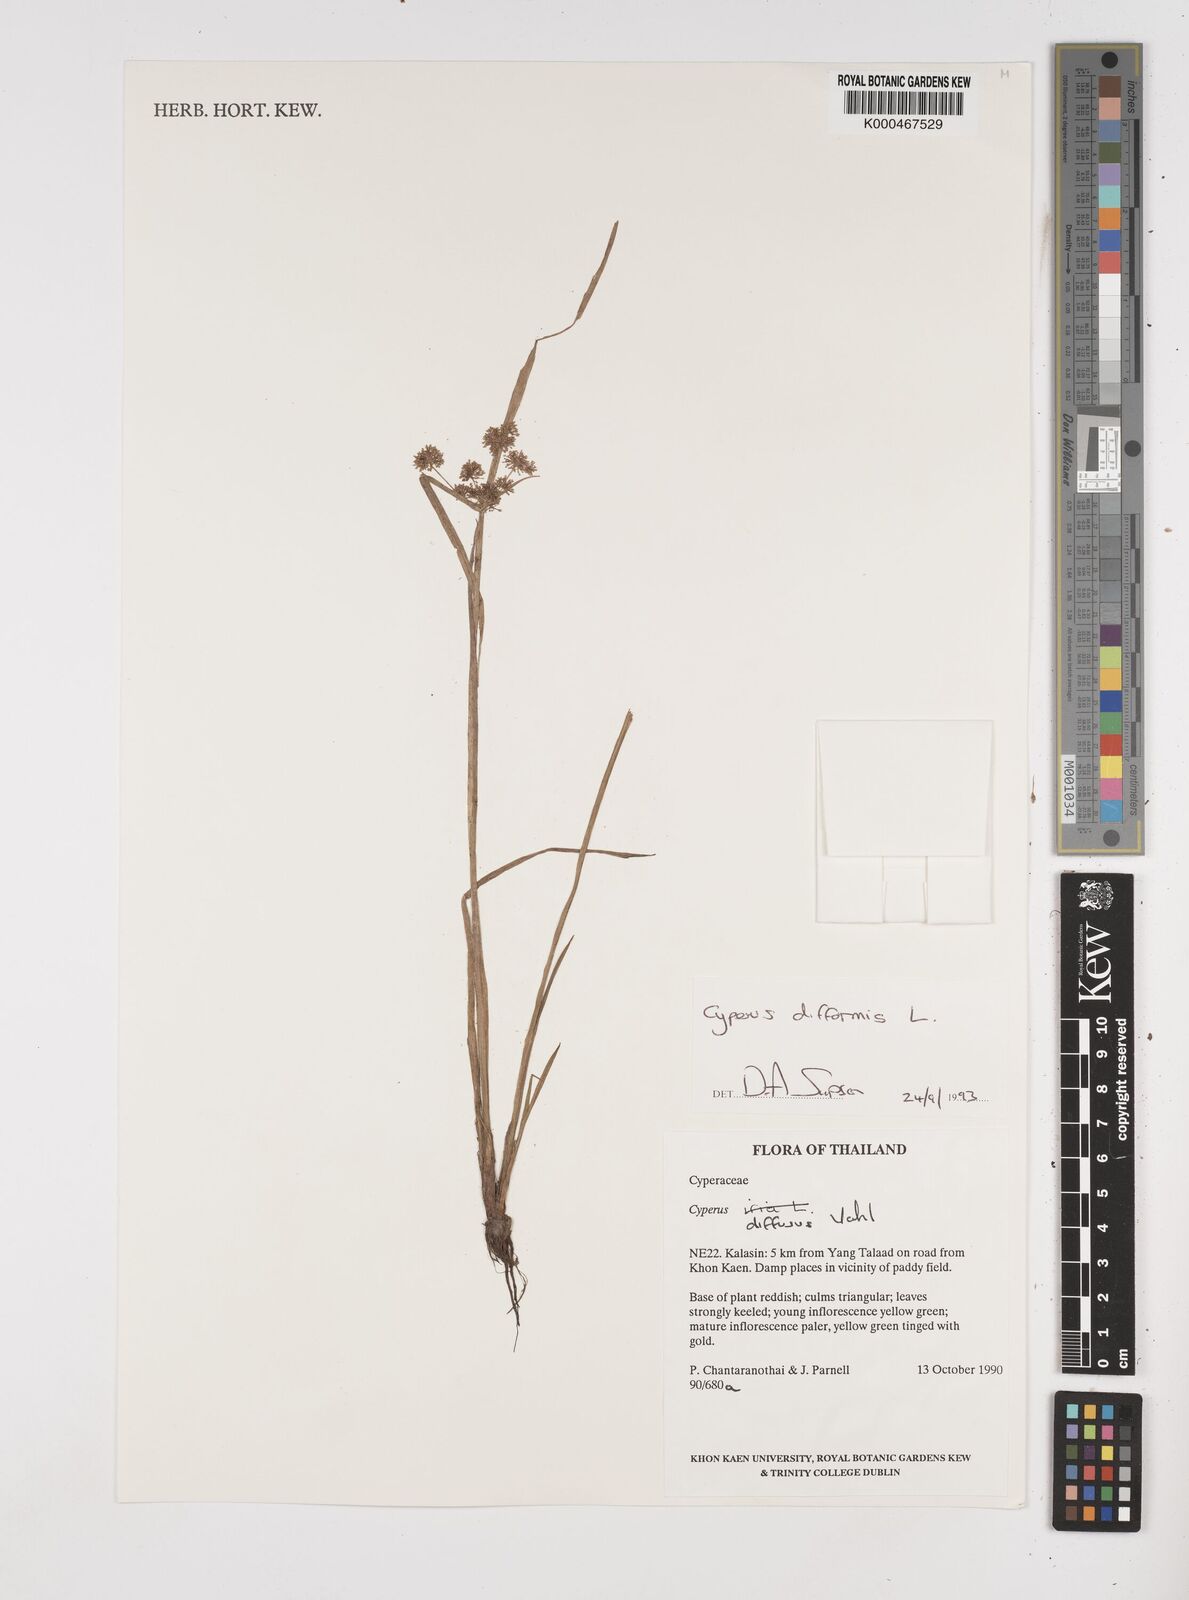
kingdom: Plantae
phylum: Tracheophyta
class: Liliopsida
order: Poales
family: Cyperaceae
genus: Cyperus
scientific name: Cyperus difformis
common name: Variable flatsedge
